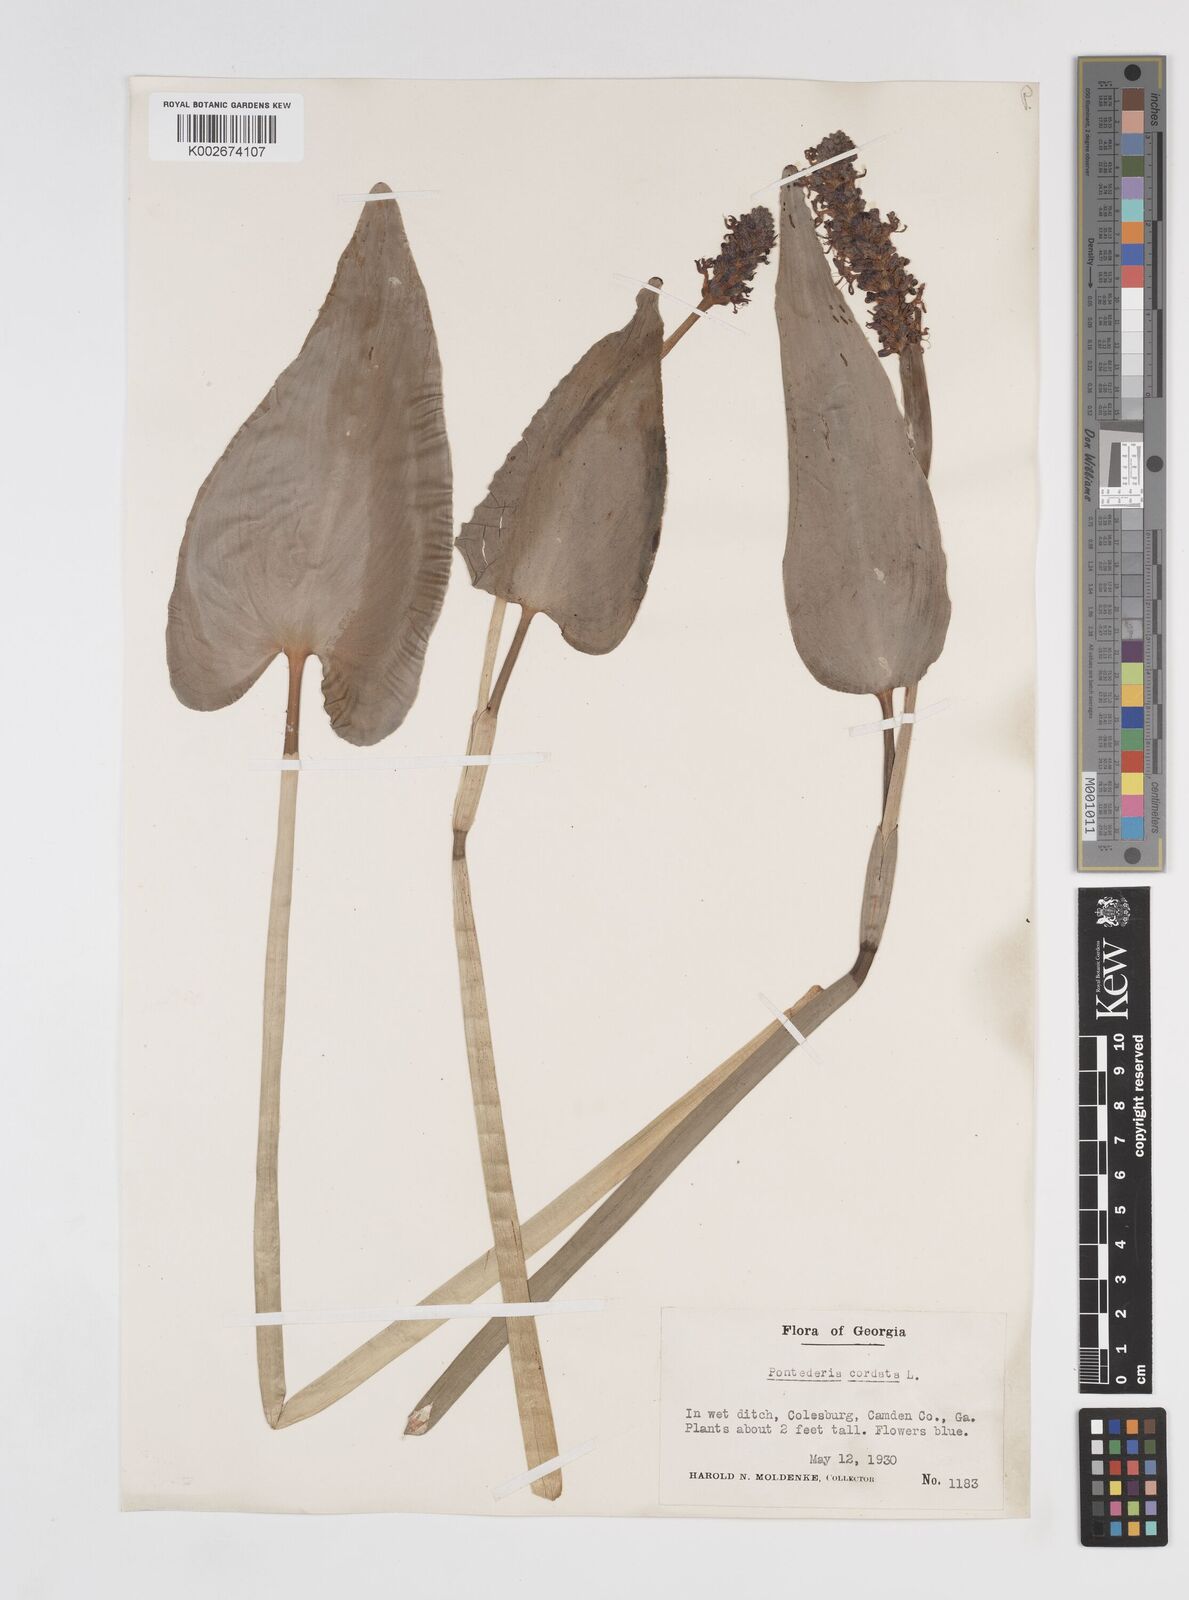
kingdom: Plantae
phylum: Tracheophyta
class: Liliopsida
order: Commelinales
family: Pontederiaceae
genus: Pontederia
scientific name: Pontederia cordata
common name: Pickerelweed
